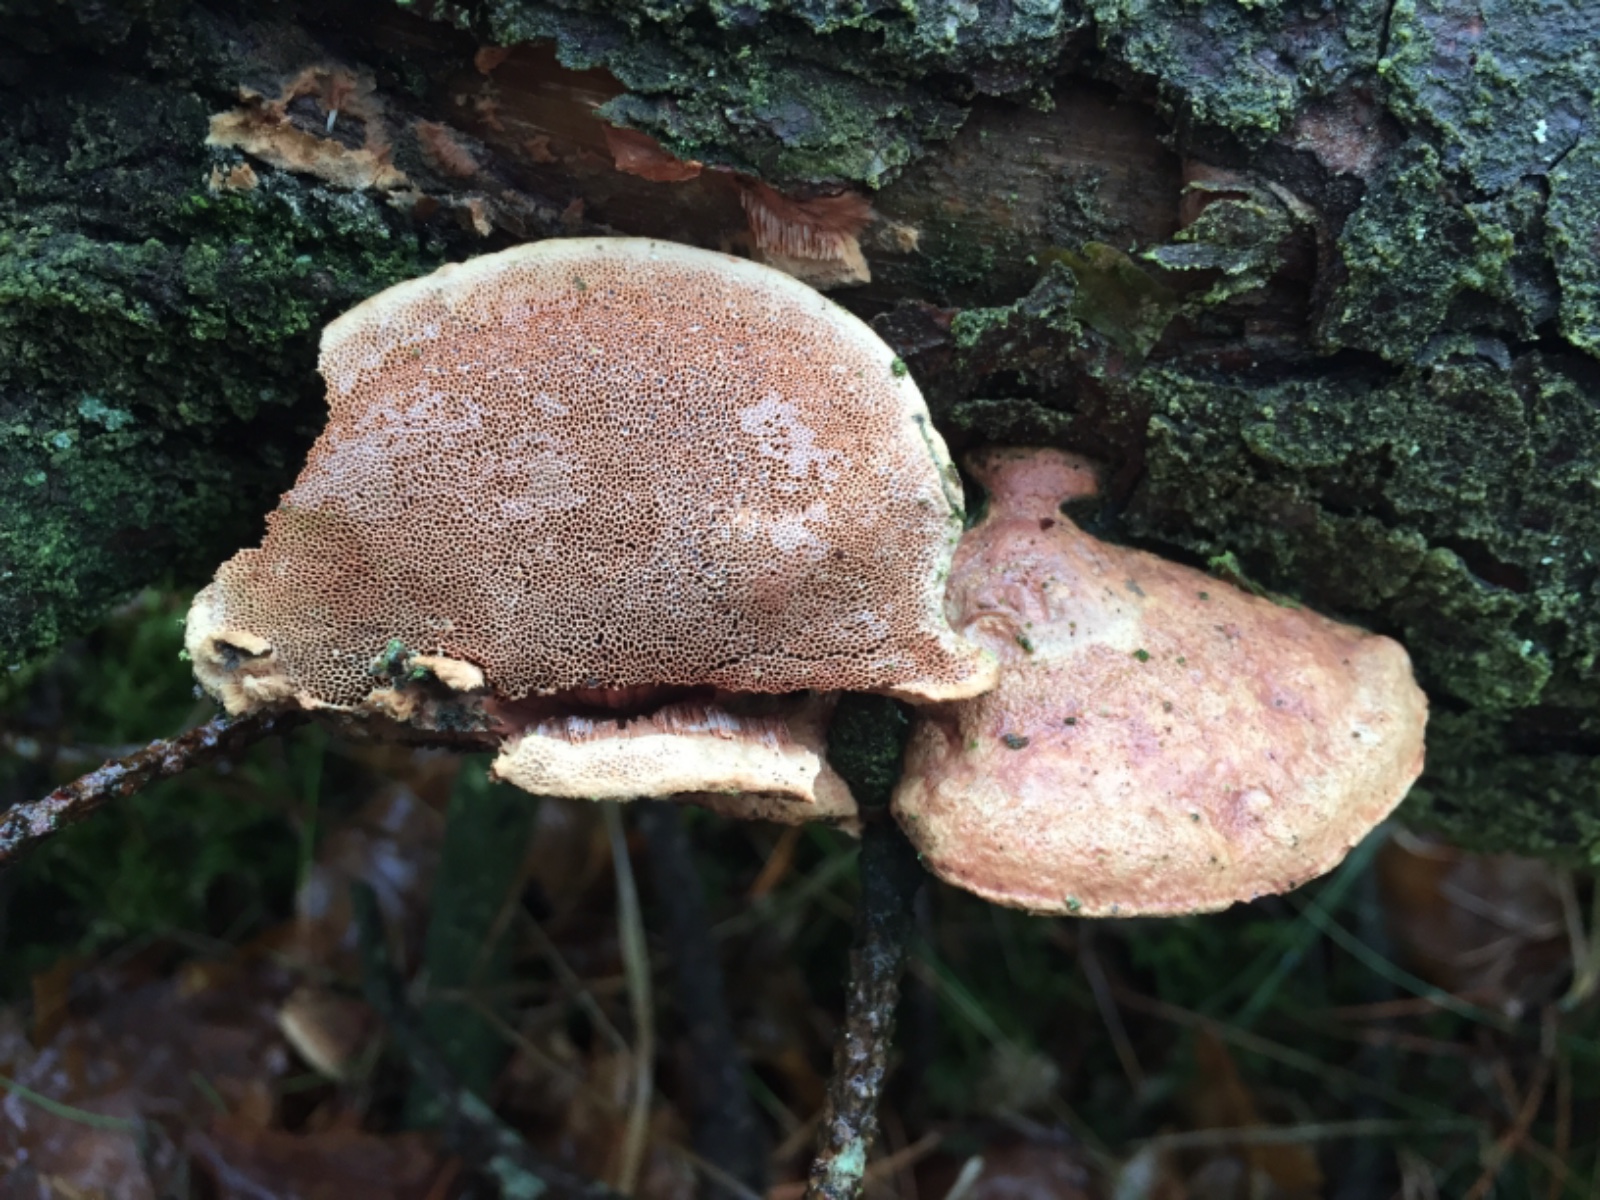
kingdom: Fungi
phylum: Basidiomycota
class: Agaricomycetes
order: Polyporales
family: Phanerochaetaceae
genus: Hapalopilus
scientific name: Hapalopilus rutilans
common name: rødlig okkerporesvamp
